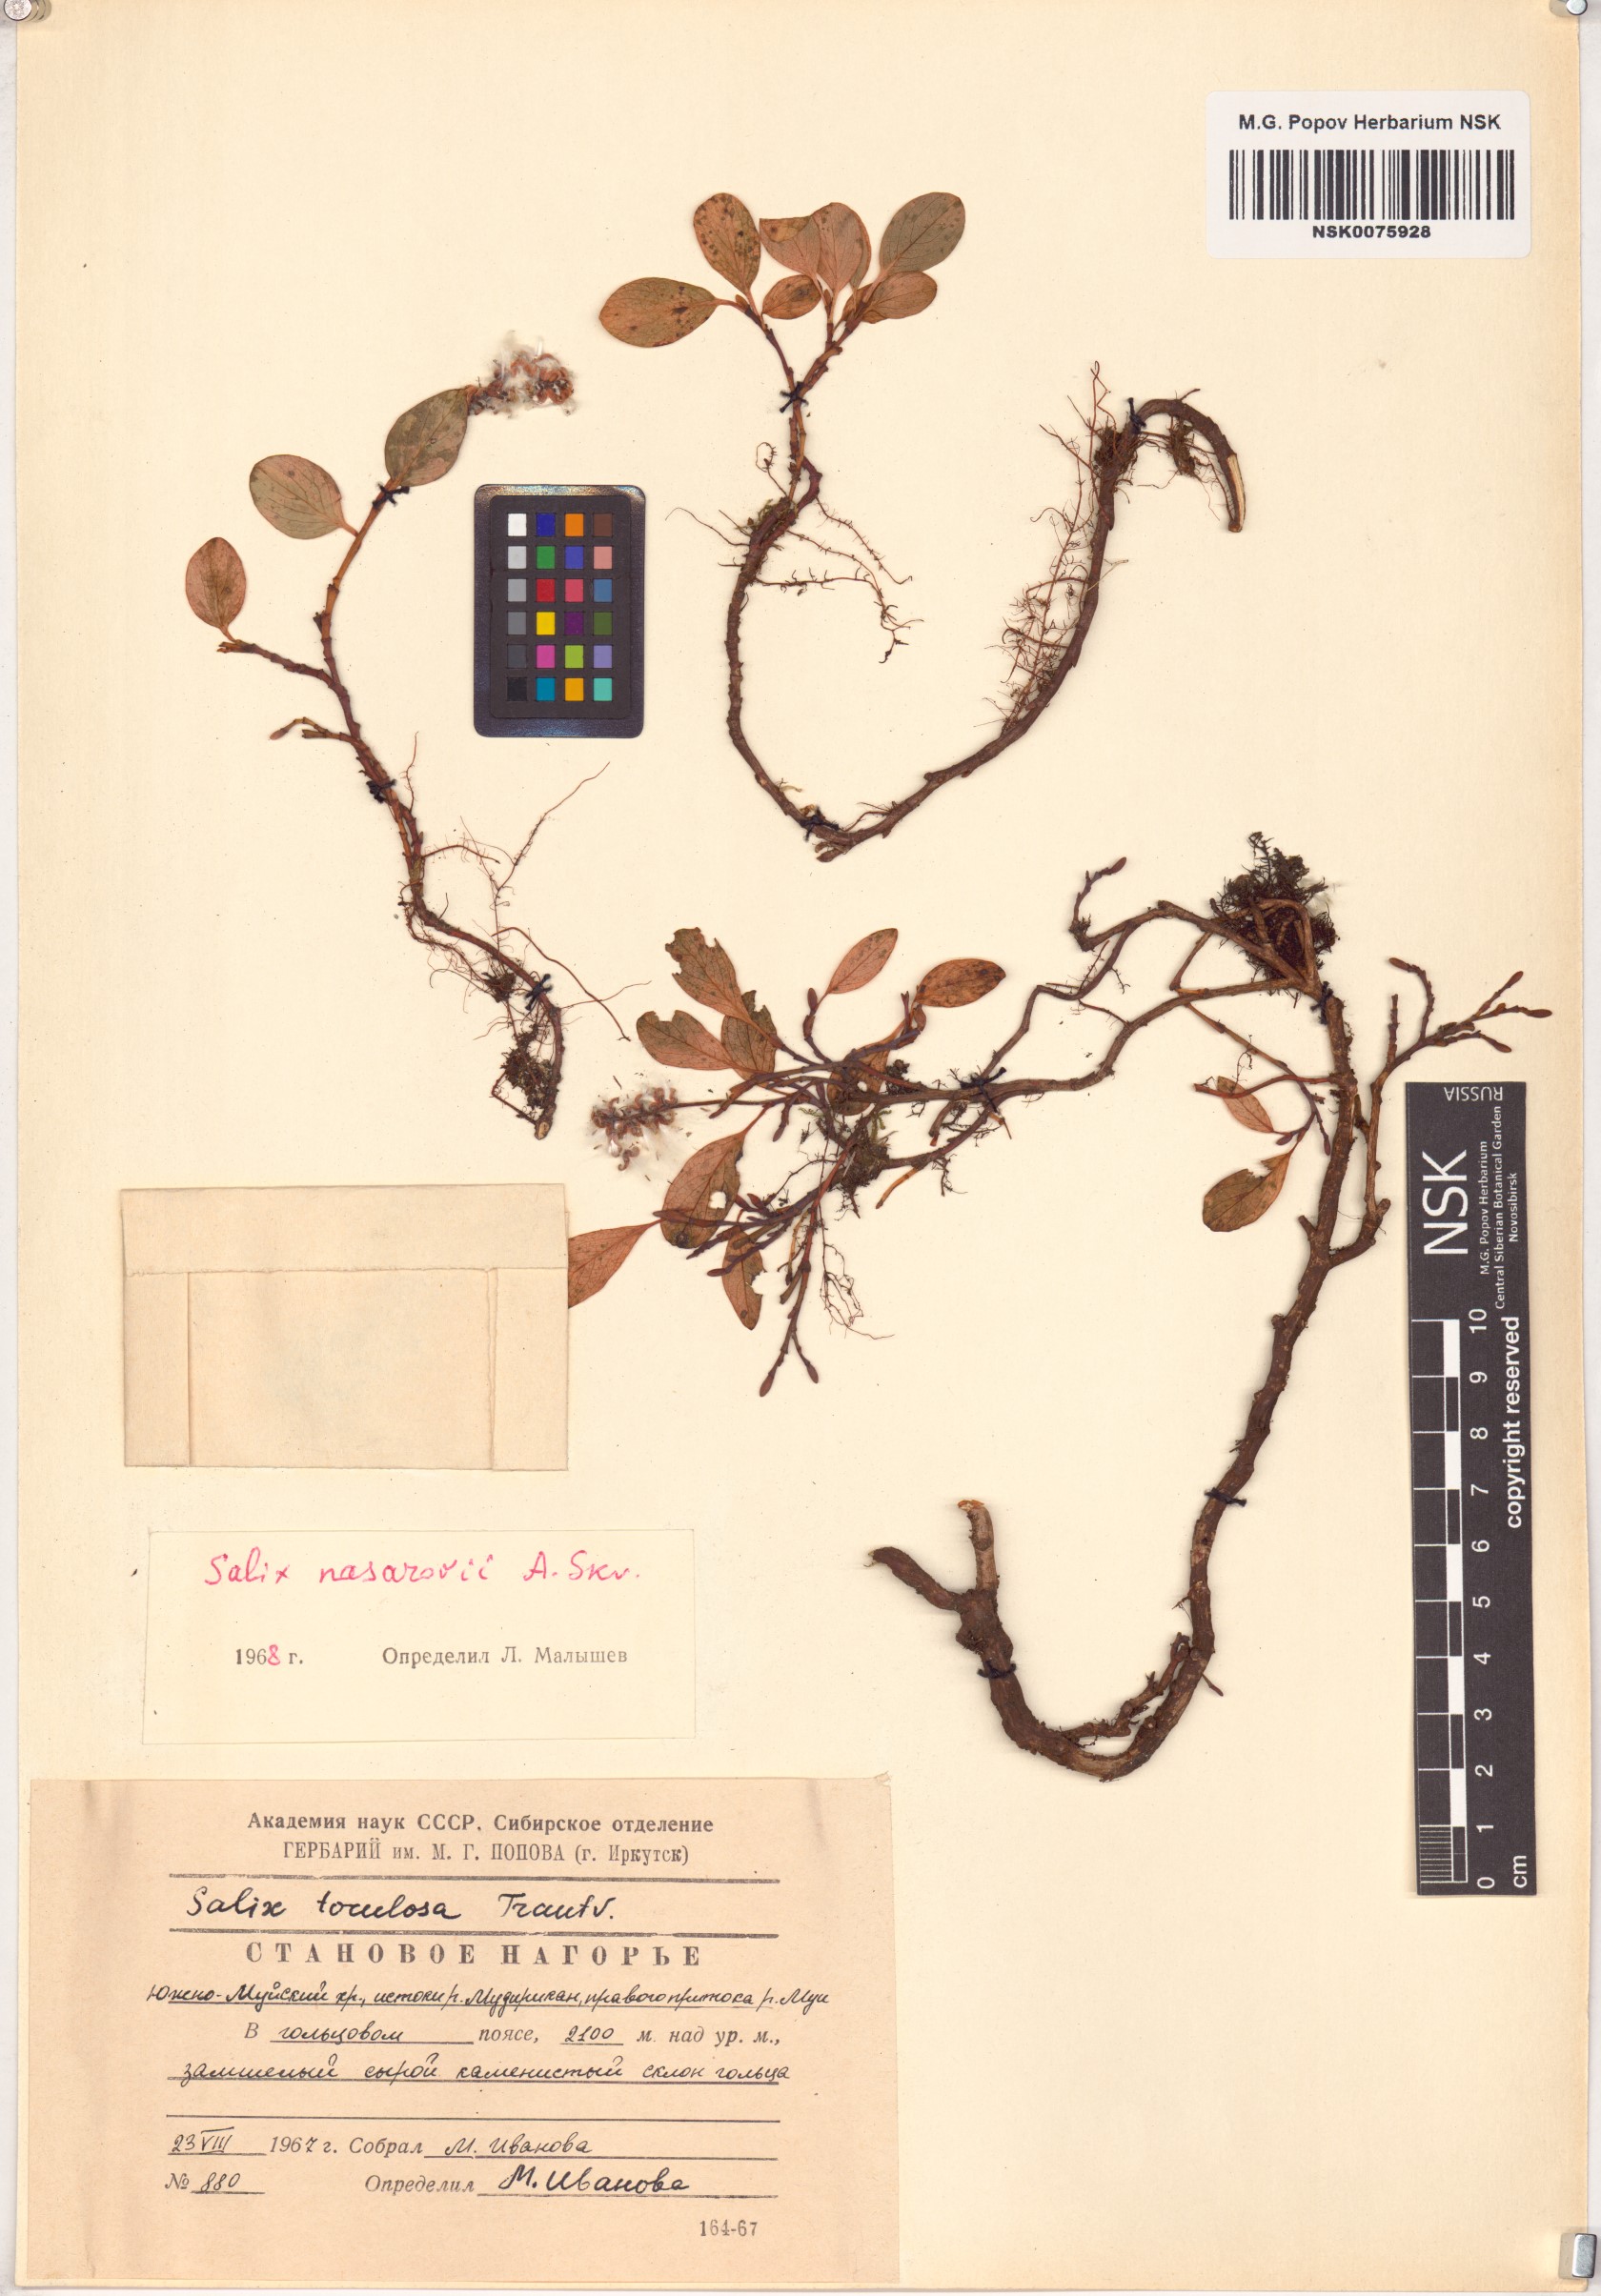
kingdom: Plantae
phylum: Tracheophyta
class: Magnoliopsida
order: Malpighiales
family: Salicaceae
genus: Salix
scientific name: Salix nasarovii
